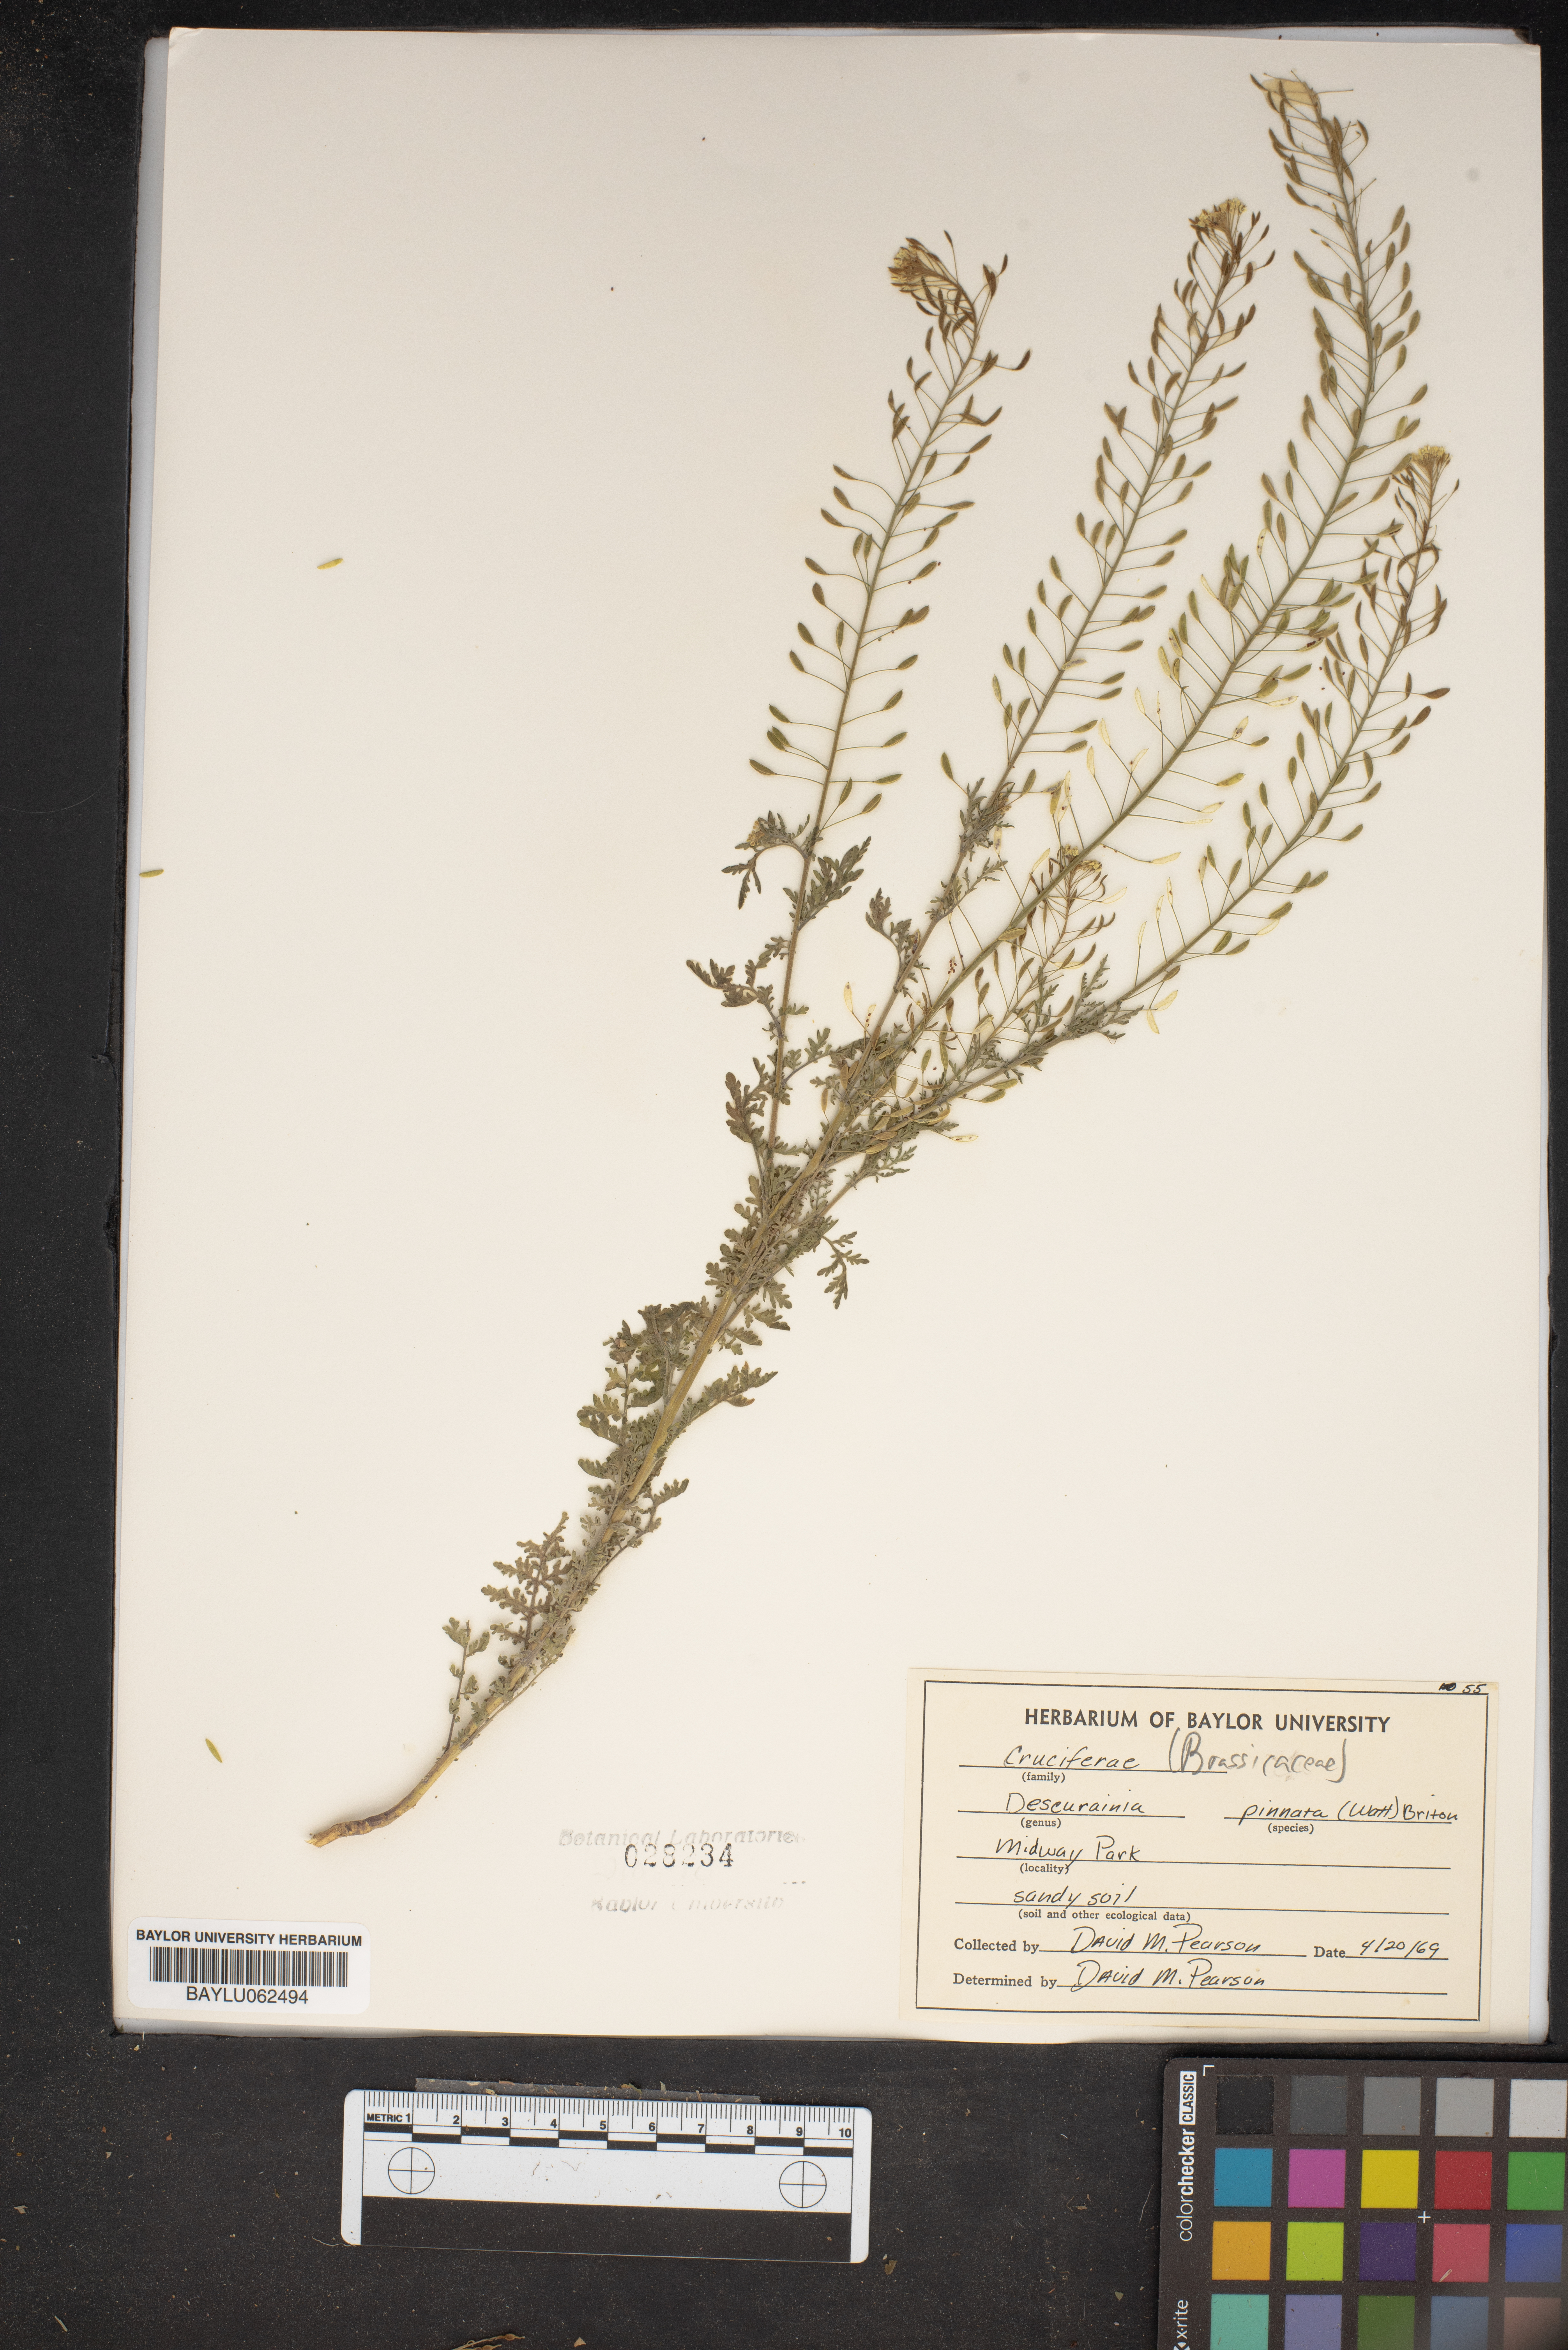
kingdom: Plantae
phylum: Tracheophyta
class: Magnoliopsida
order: Brassicales
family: Brassicaceae
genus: Descurainia
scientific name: Descurainia pinnata
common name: Western tansy mustard
